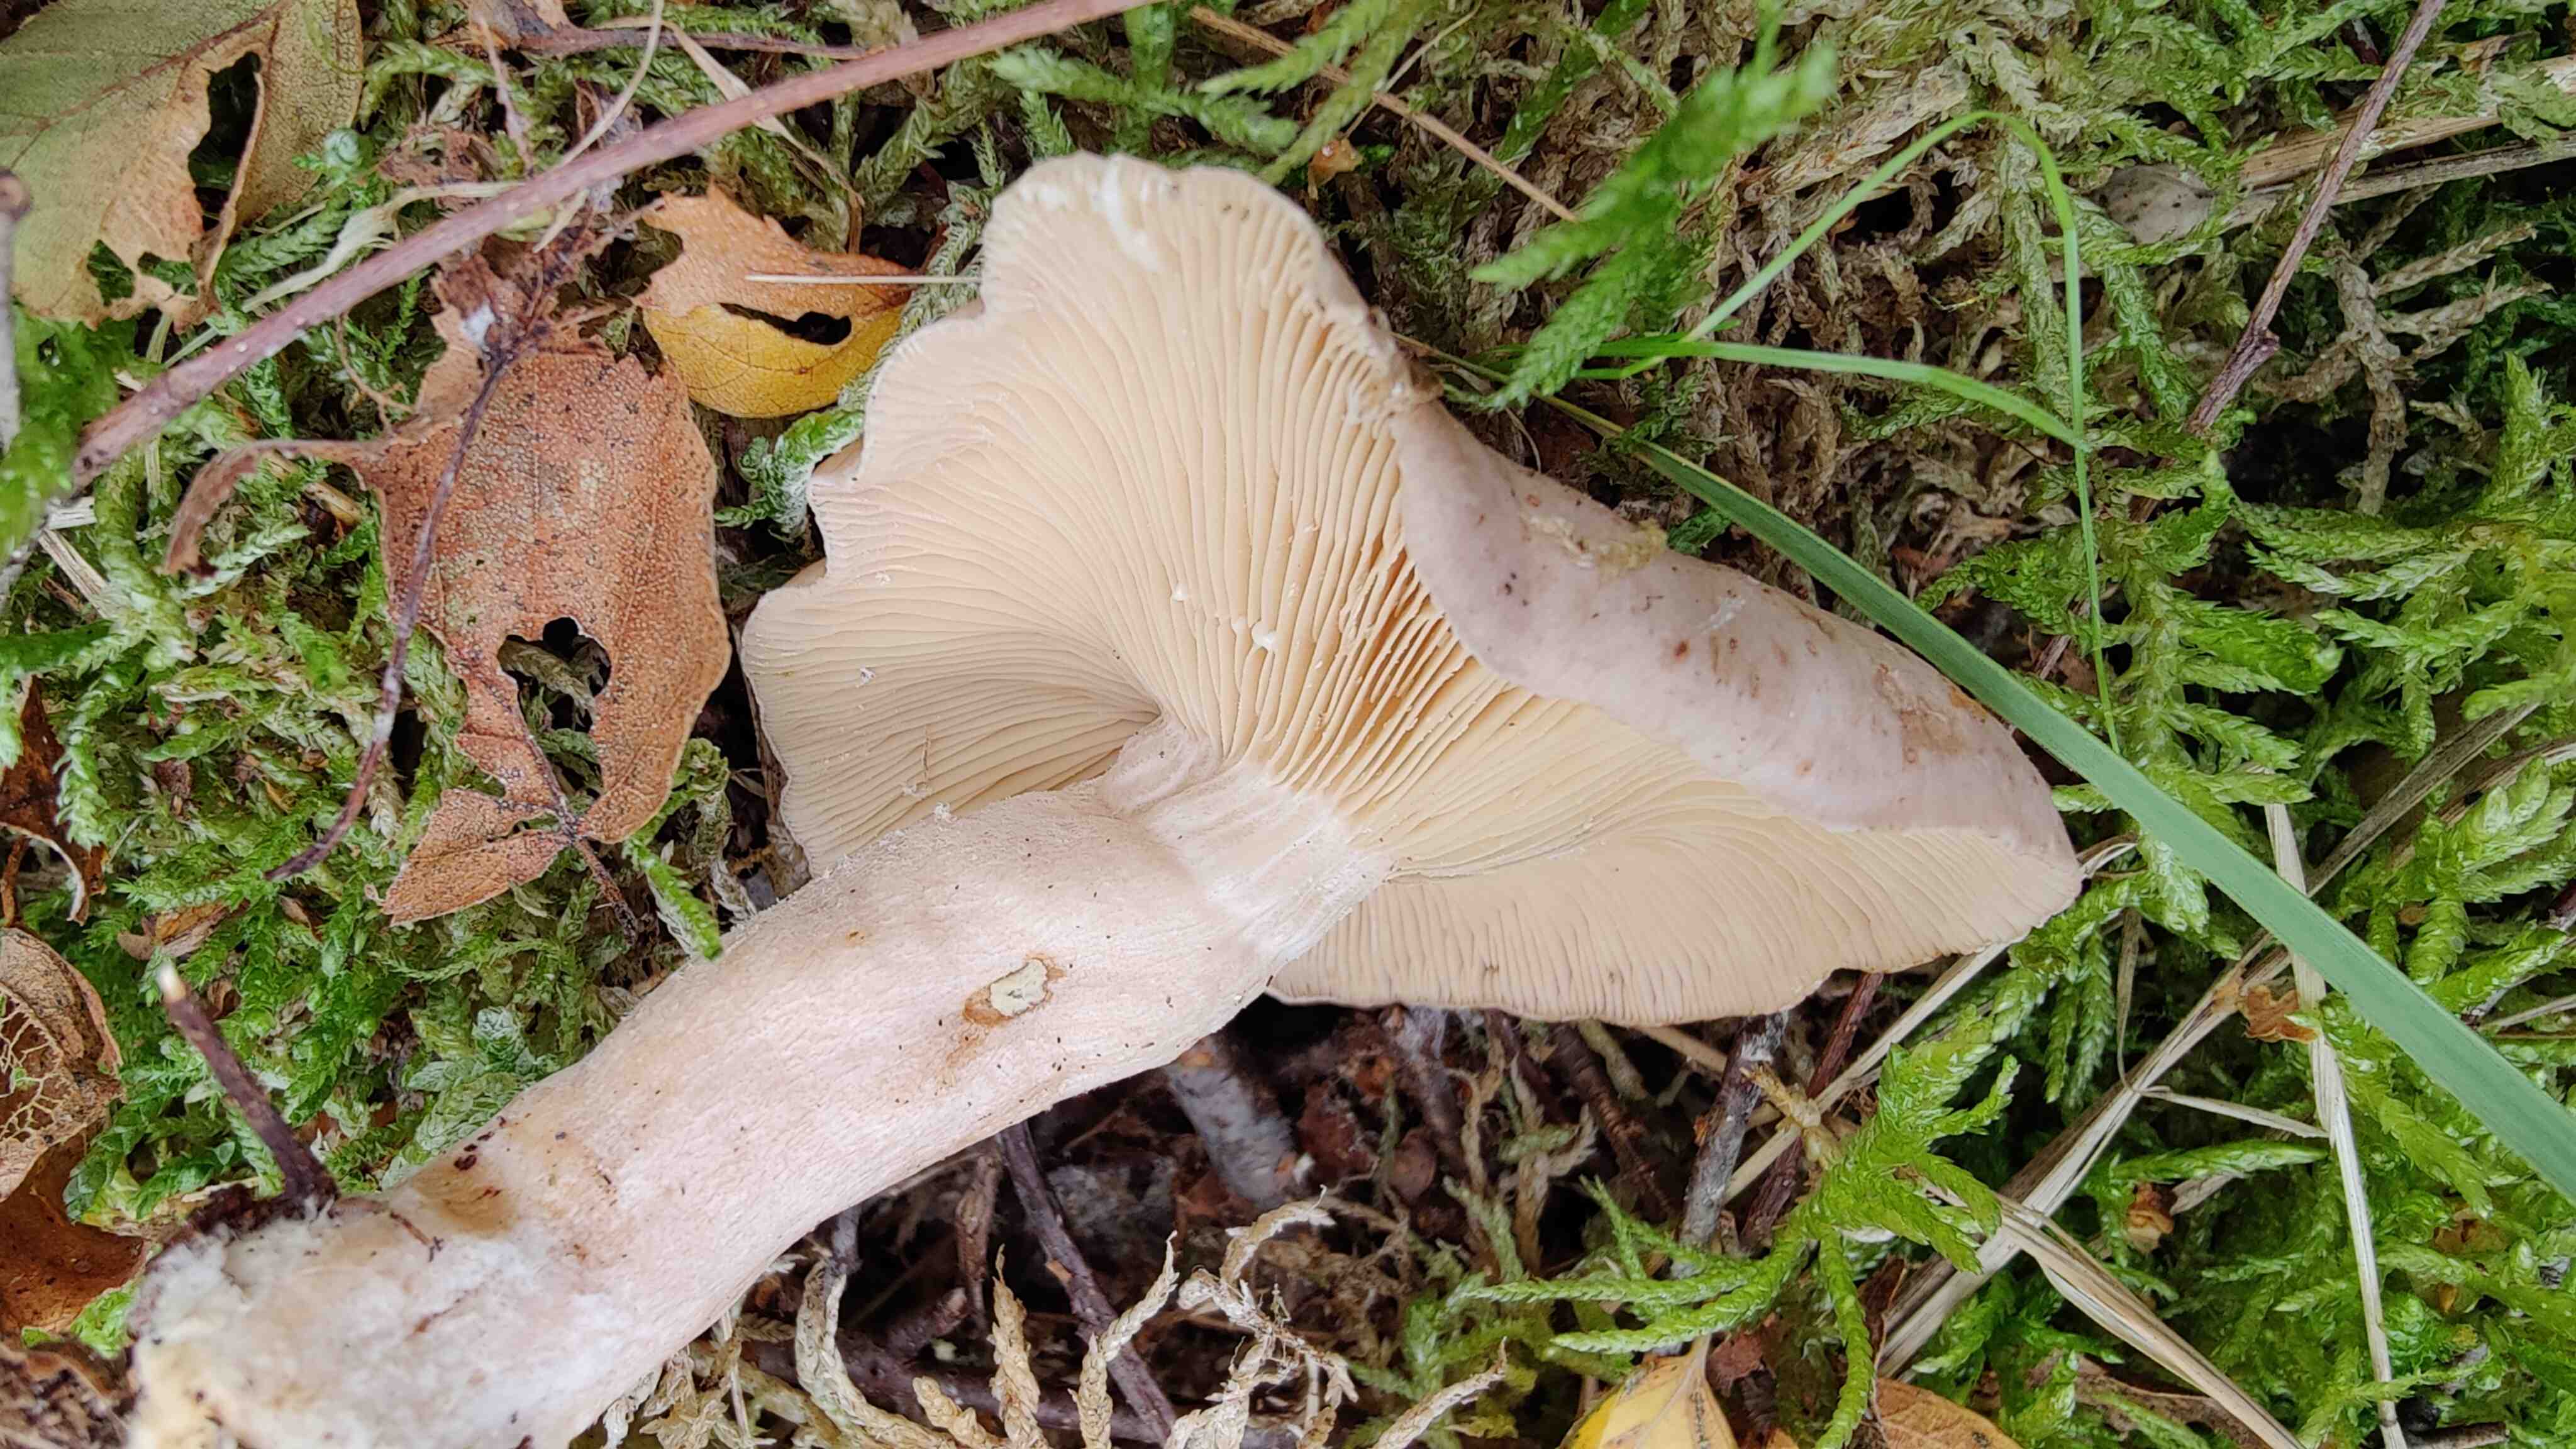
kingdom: Fungi
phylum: Basidiomycota
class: Agaricomycetes
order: Russulales
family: Russulaceae
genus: Lactarius
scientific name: Lactarius vietus
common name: violetgrå mælkehat
